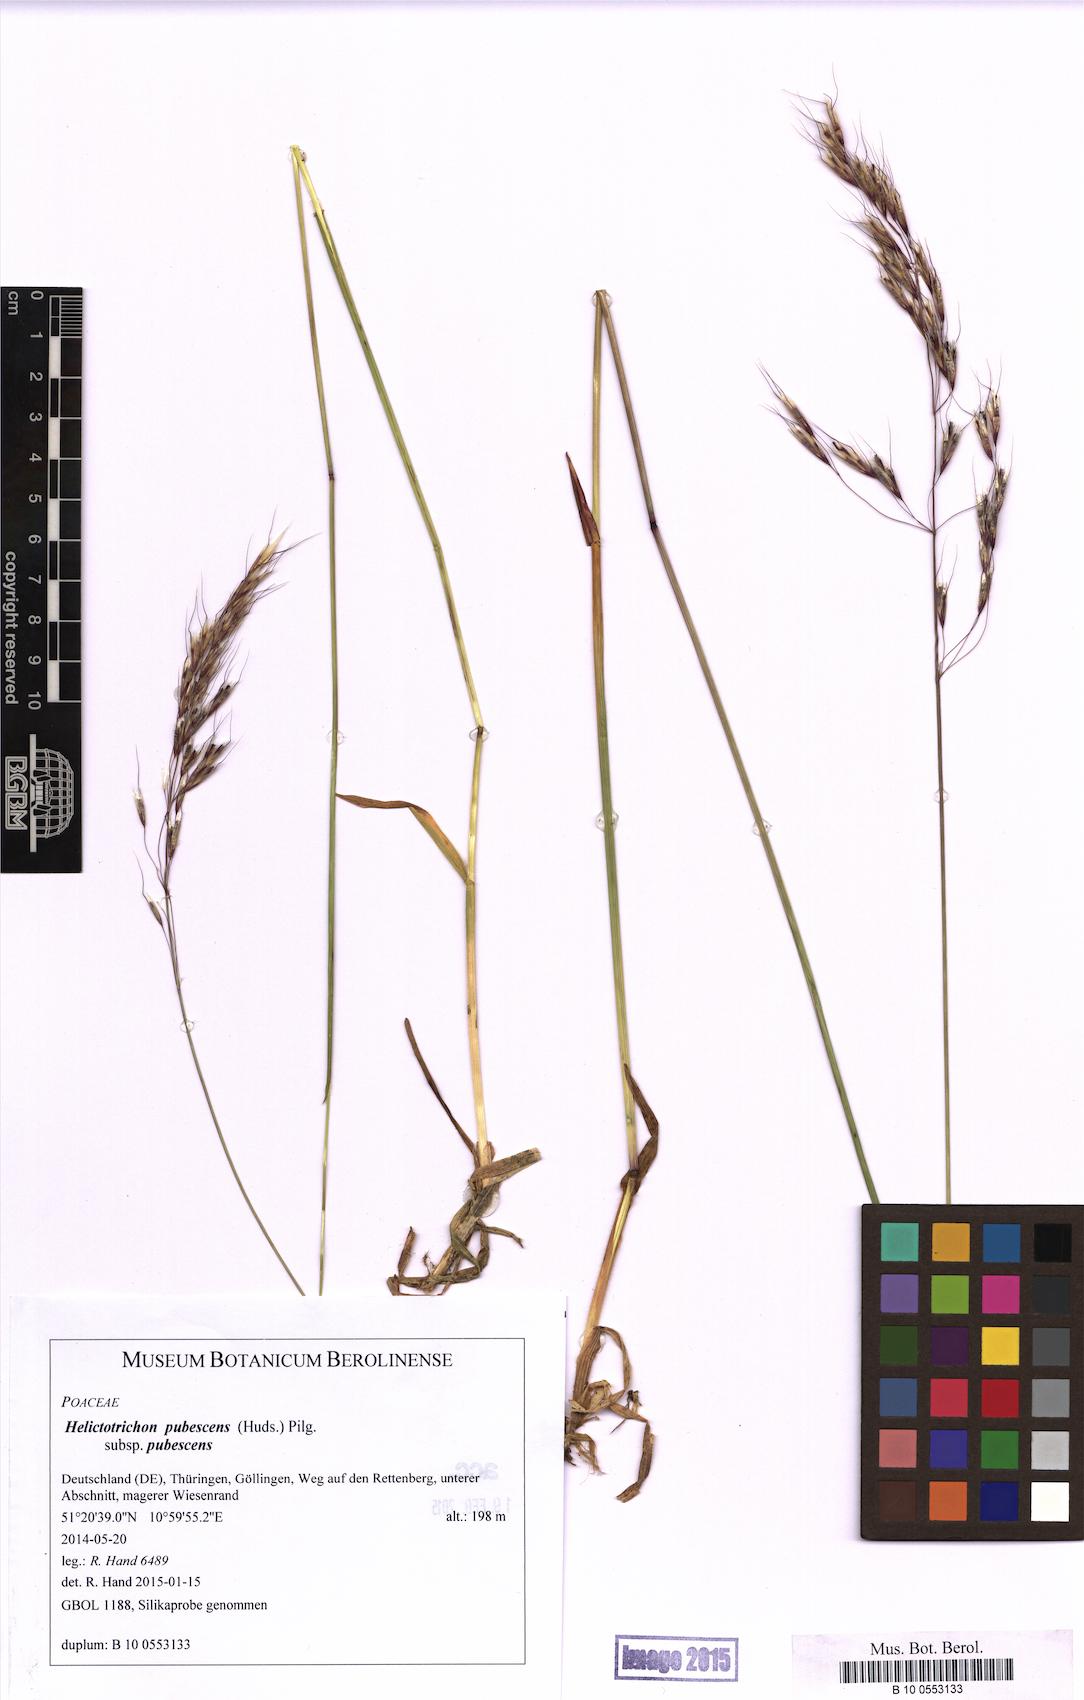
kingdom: Plantae
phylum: Tracheophyta
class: Liliopsida
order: Poales
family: Poaceae
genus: Avenula
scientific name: Avenula pubescens
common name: Downy alpine oatgrass
